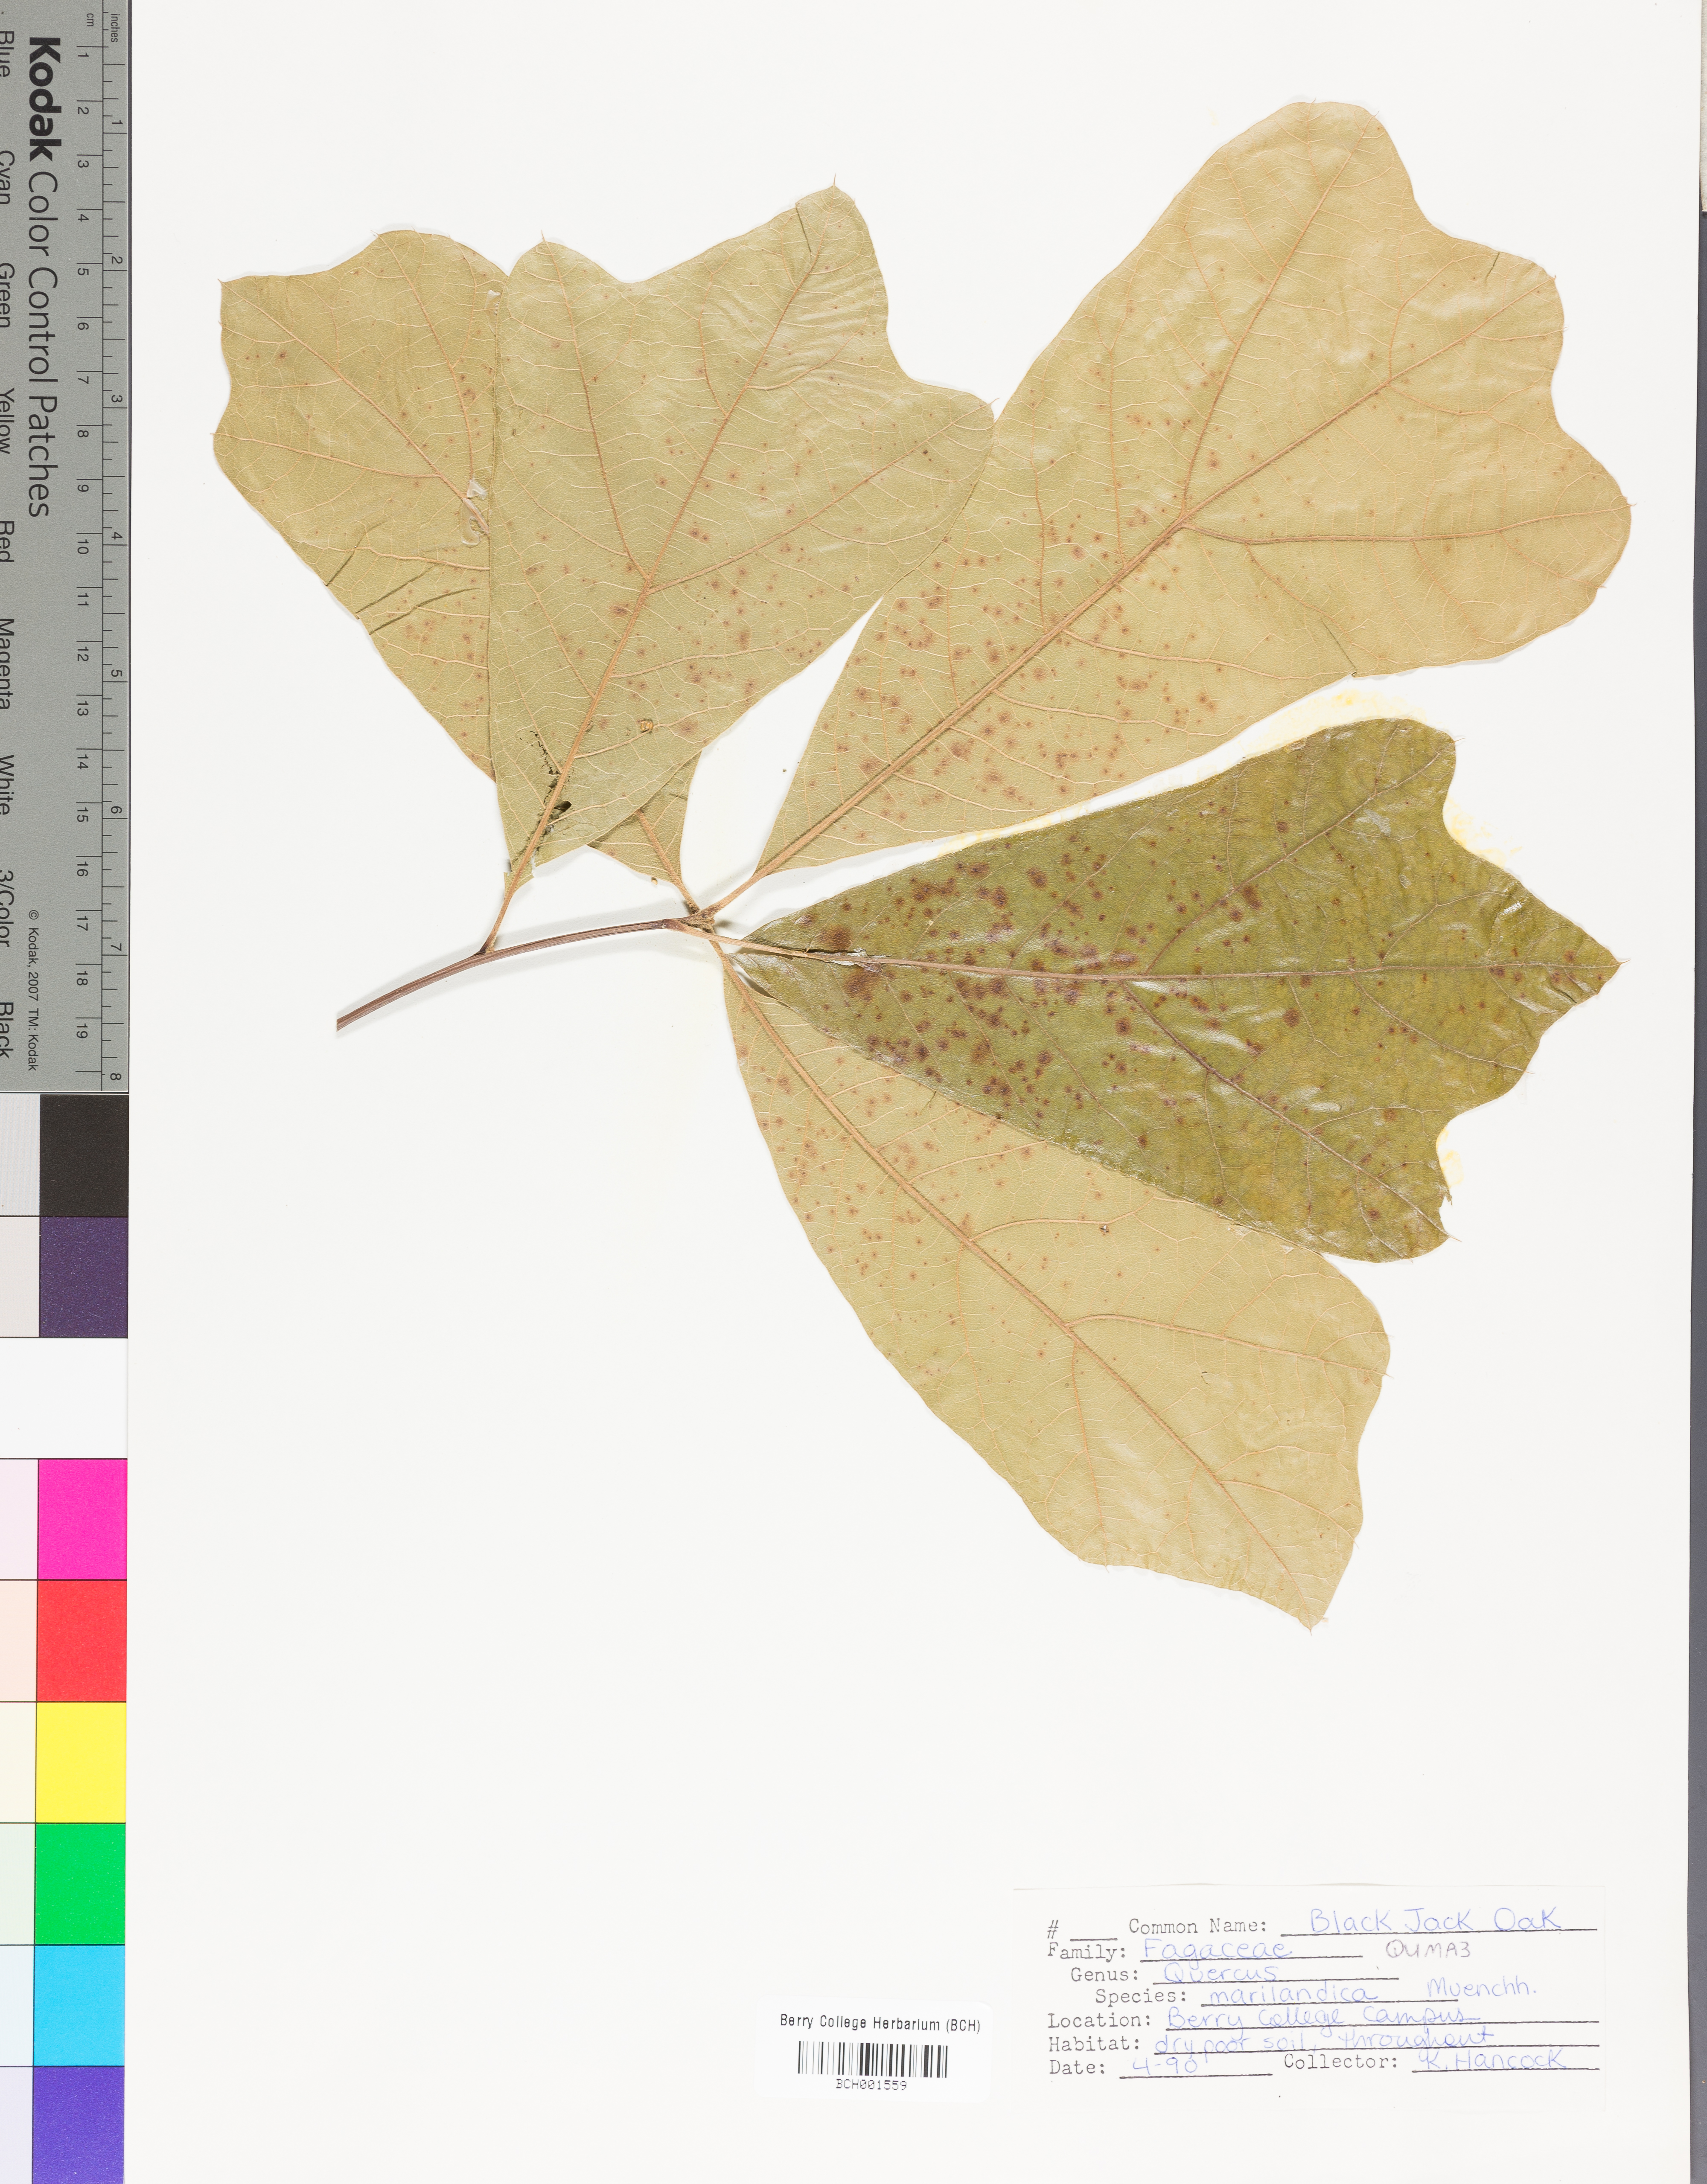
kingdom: Plantae
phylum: Tracheophyta
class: Magnoliopsida
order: Fagales
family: Fagaceae
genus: Quercus
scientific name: Quercus marilandica
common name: Blackjack oak
